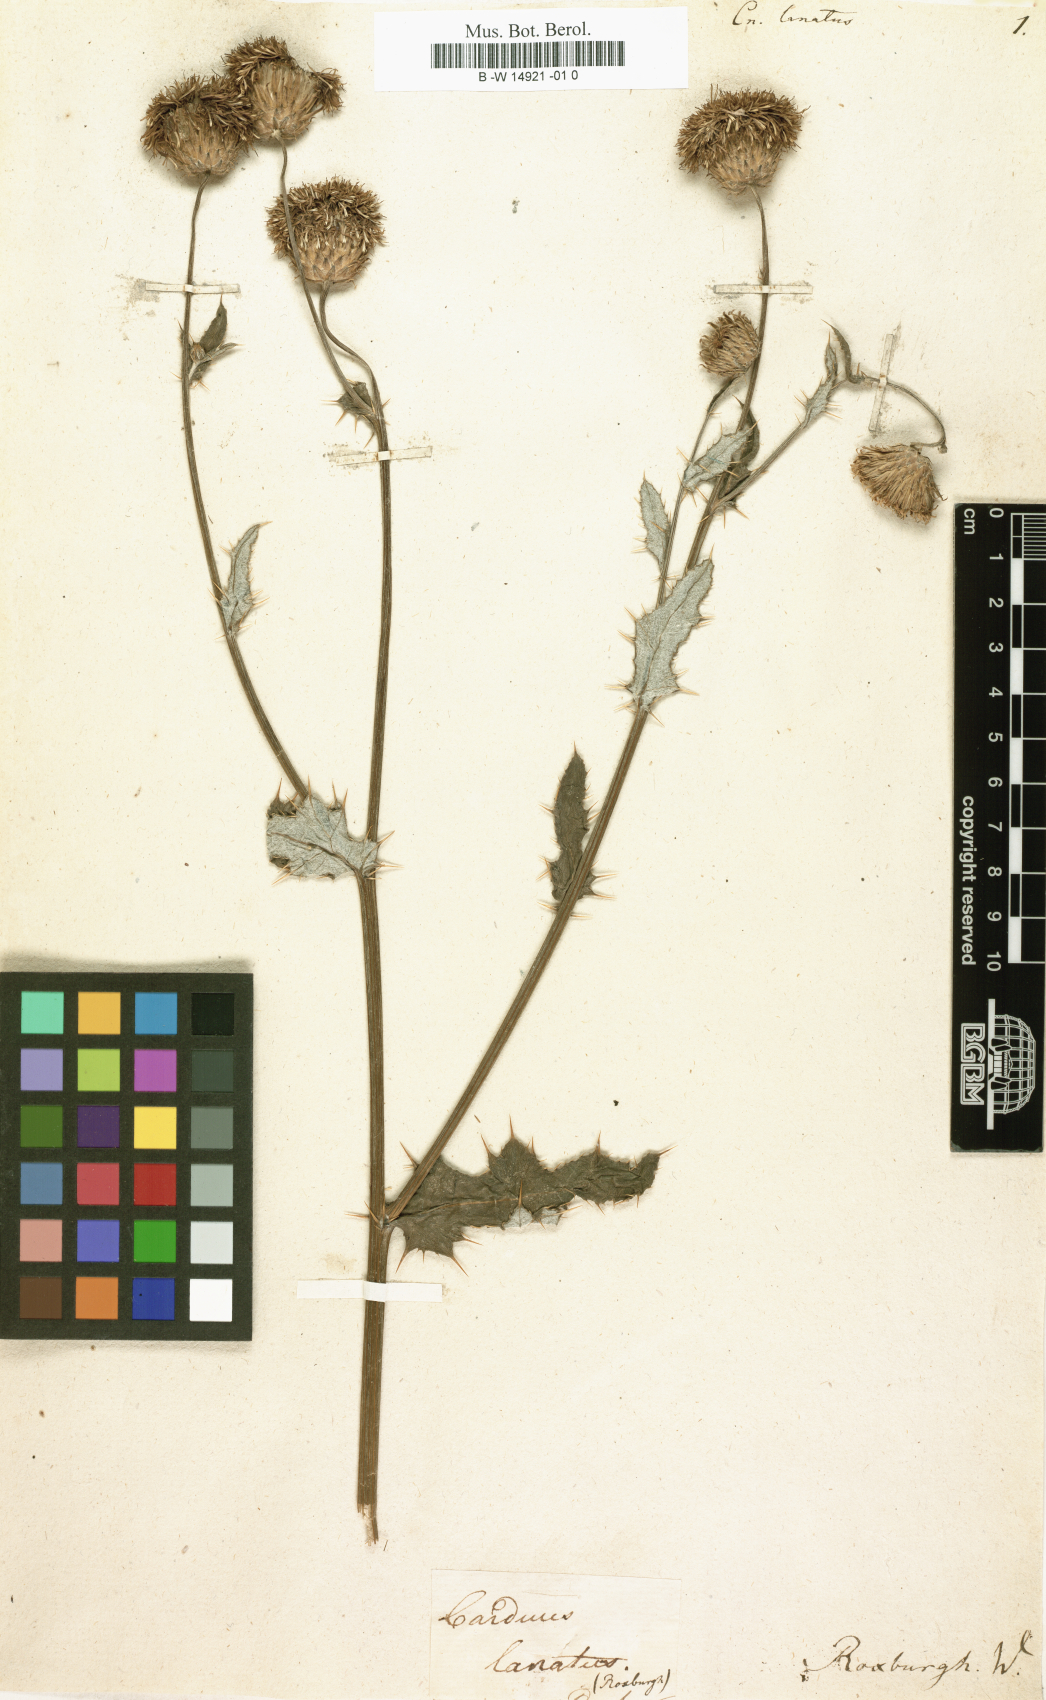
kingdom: Plantae
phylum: Tracheophyta
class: Magnoliopsida
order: Asterales
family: Asteraceae
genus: Cirsium
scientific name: Cirsium arvense
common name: Creeping thistle
